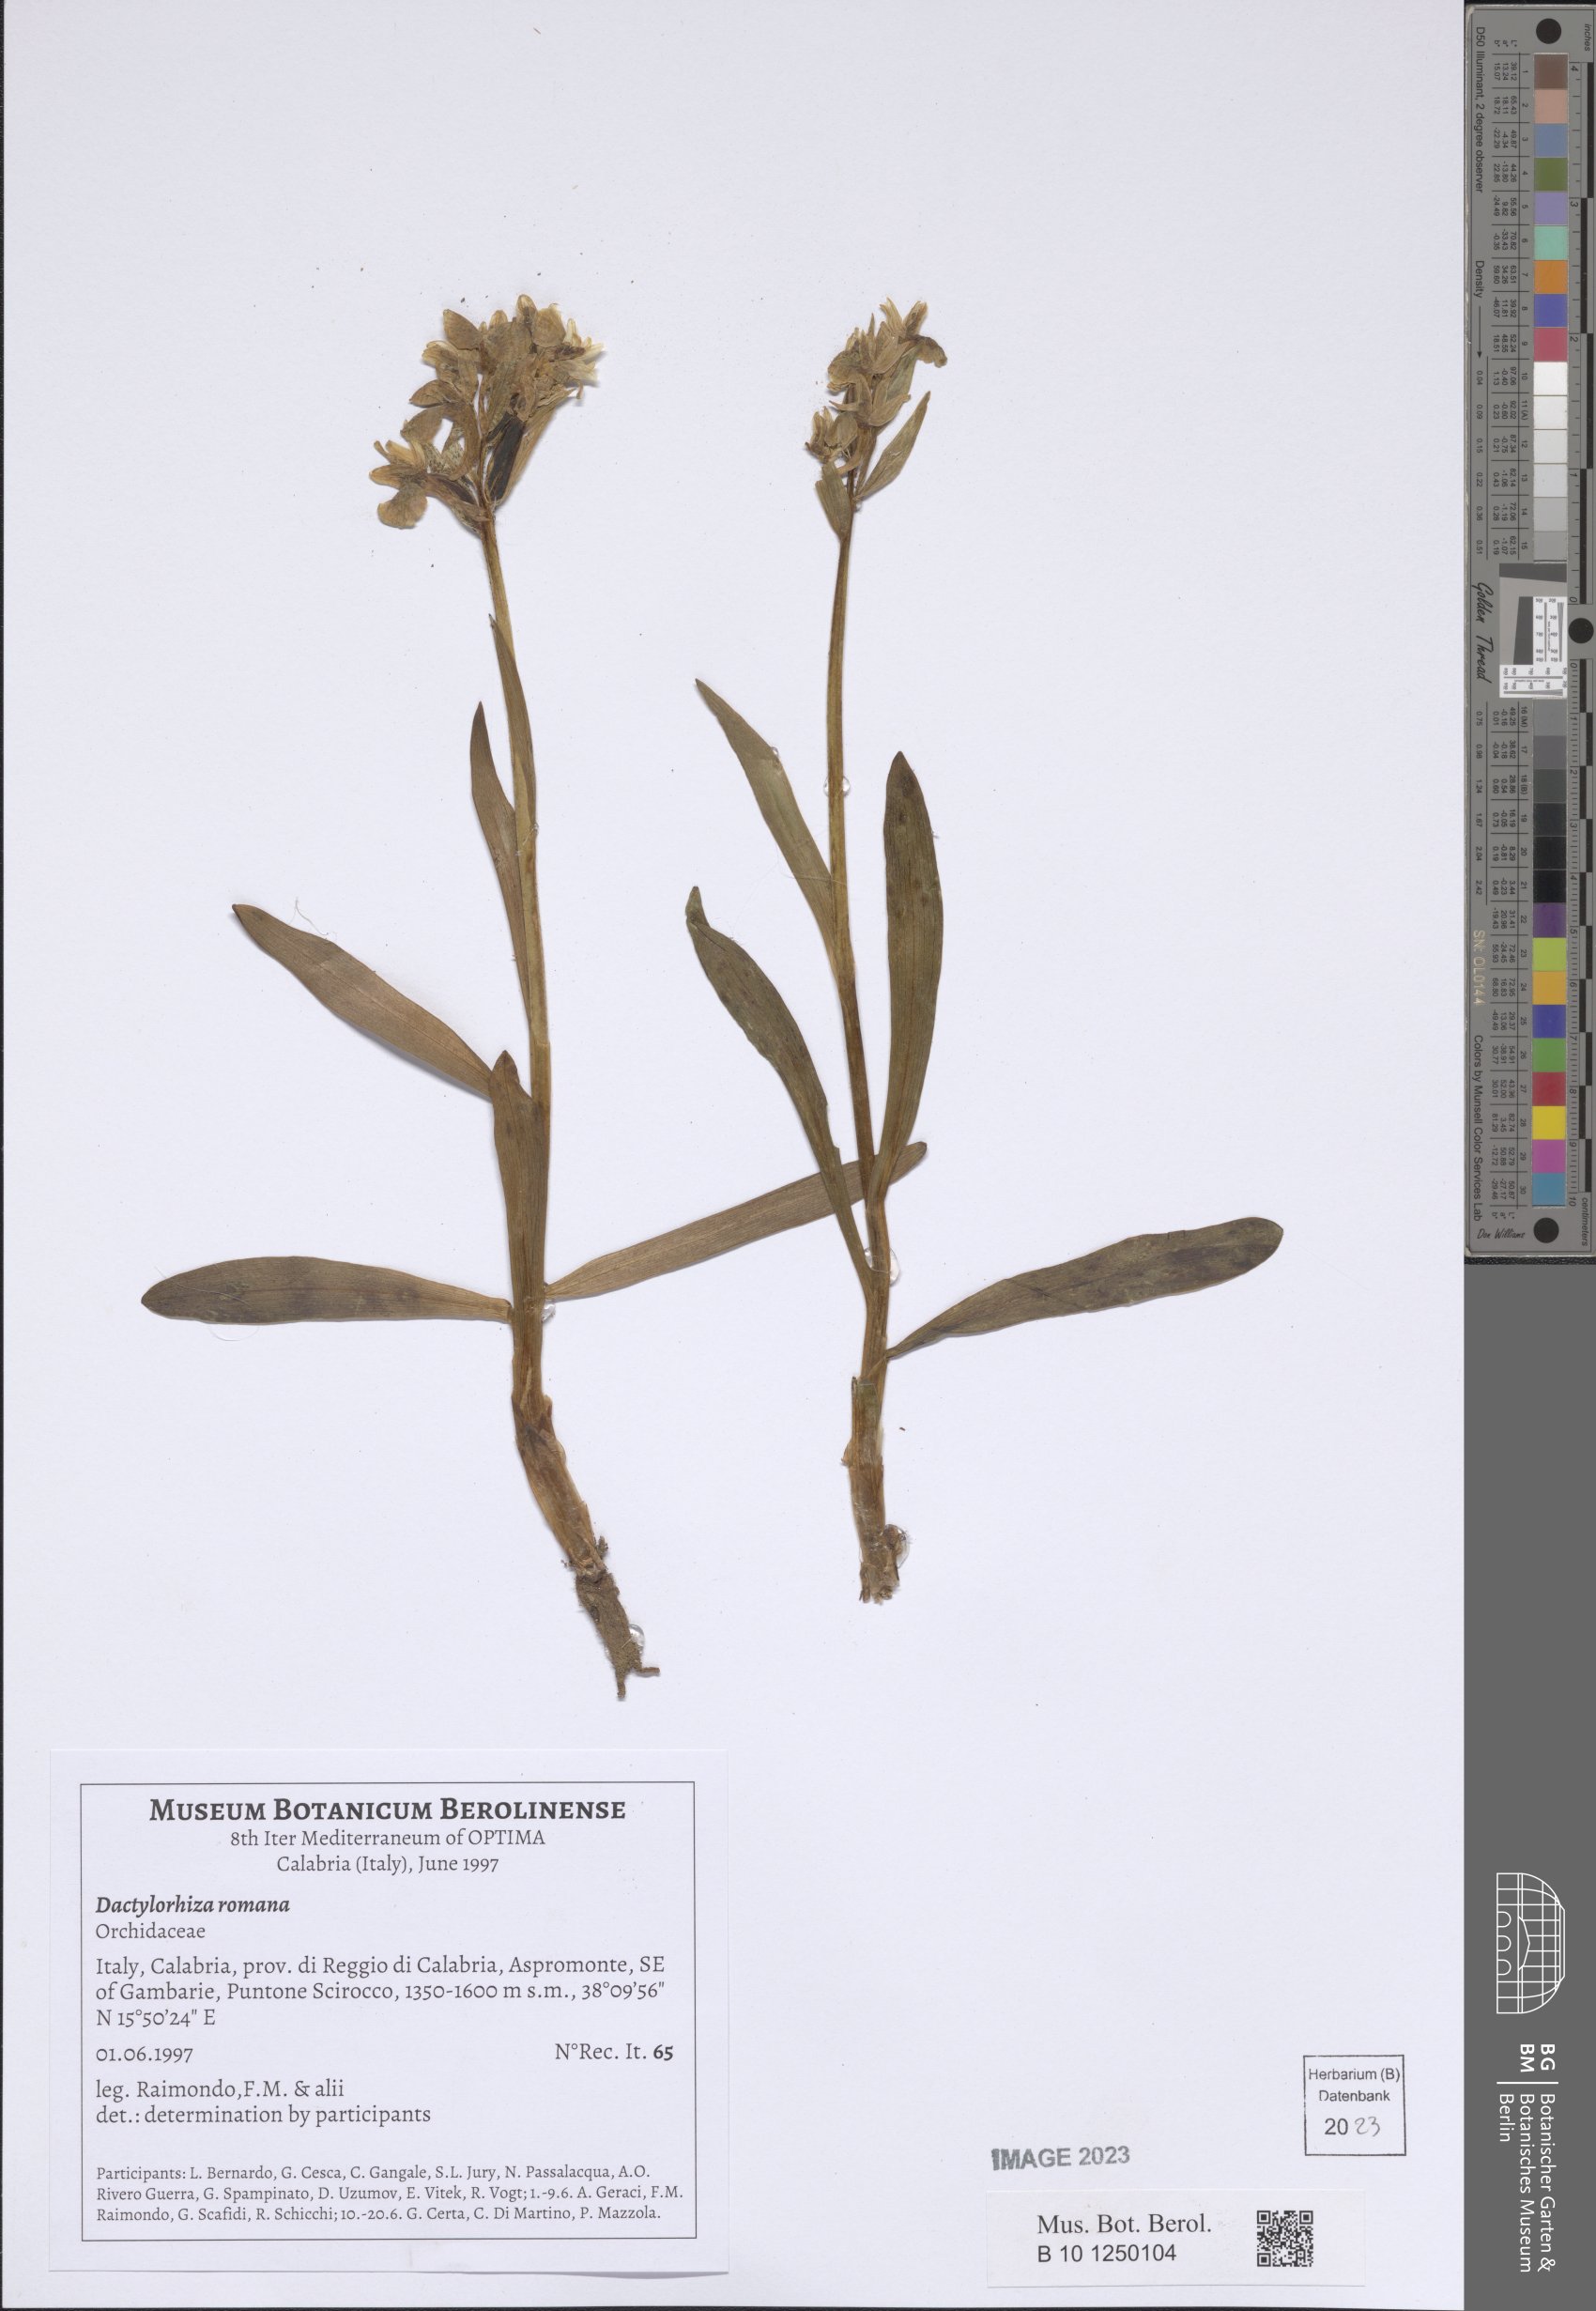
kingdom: Plantae
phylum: Tracheophyta
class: Liliopsida
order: Asparagales
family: Orchidaceae
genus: Dactylorhiza
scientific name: Dactylorhiza romana
